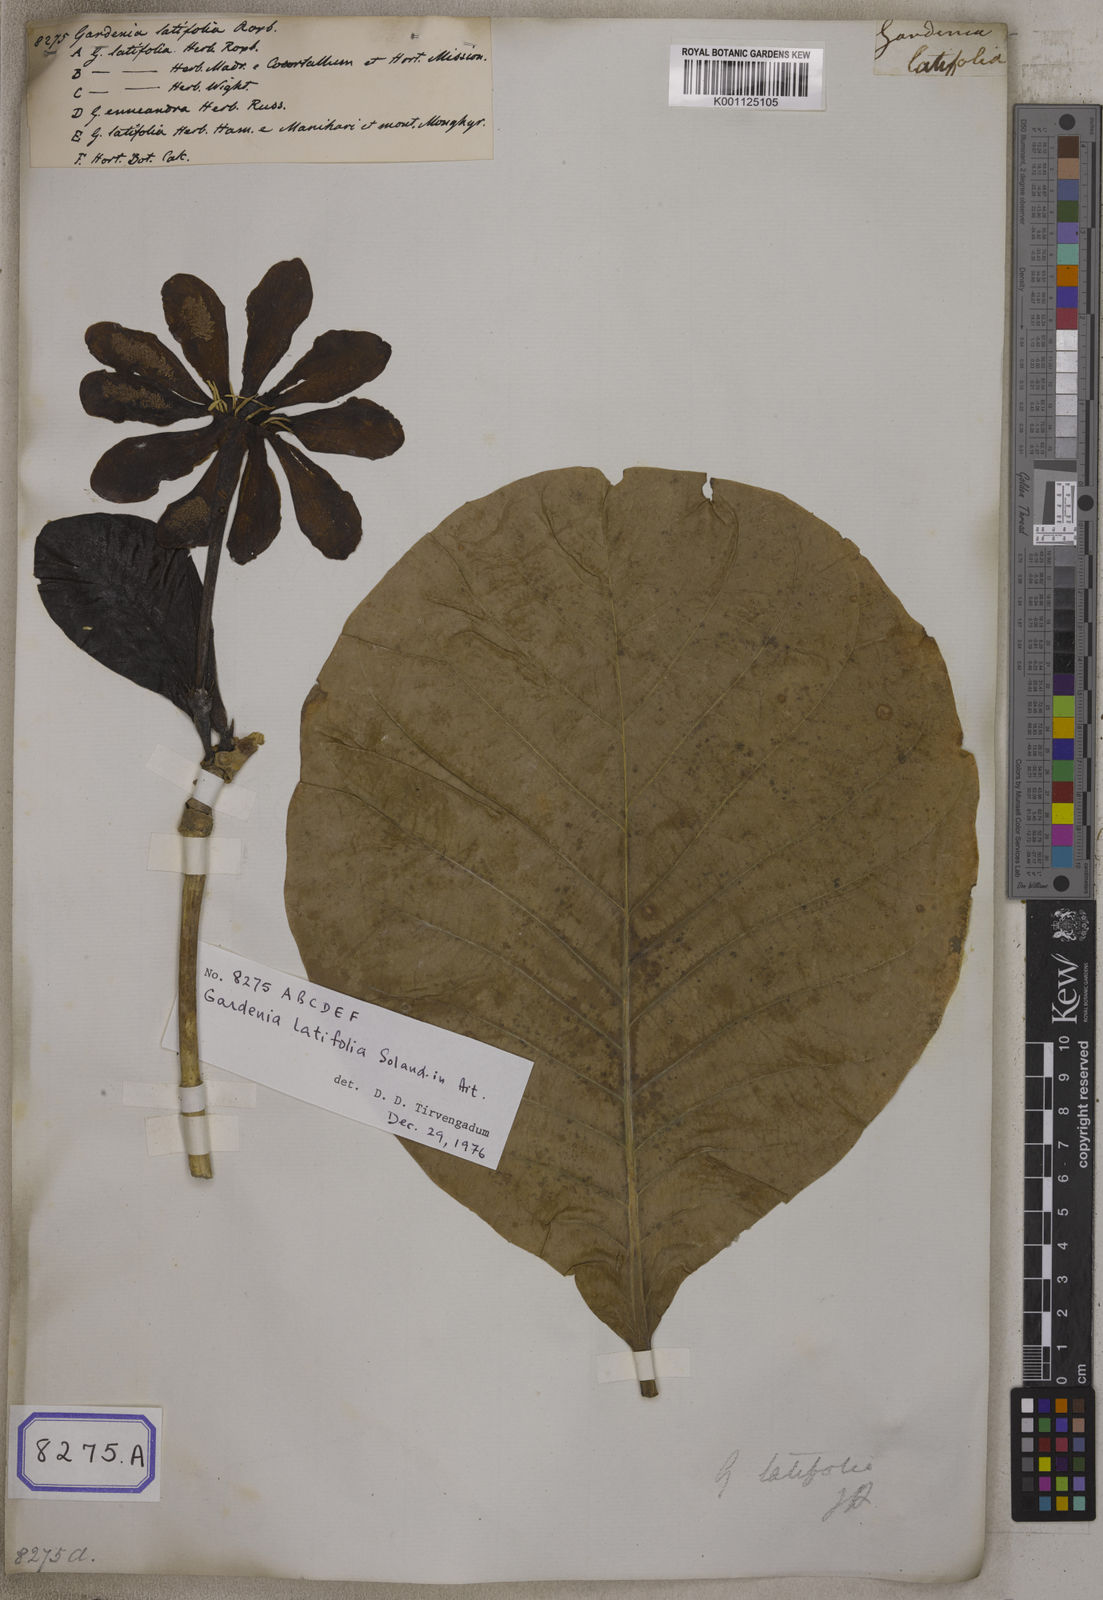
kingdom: Plantae
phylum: Tracheophyta
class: Magnoliopsida
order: Gentianales
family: Rubiaceae
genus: Gardenia
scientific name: Gardenia
